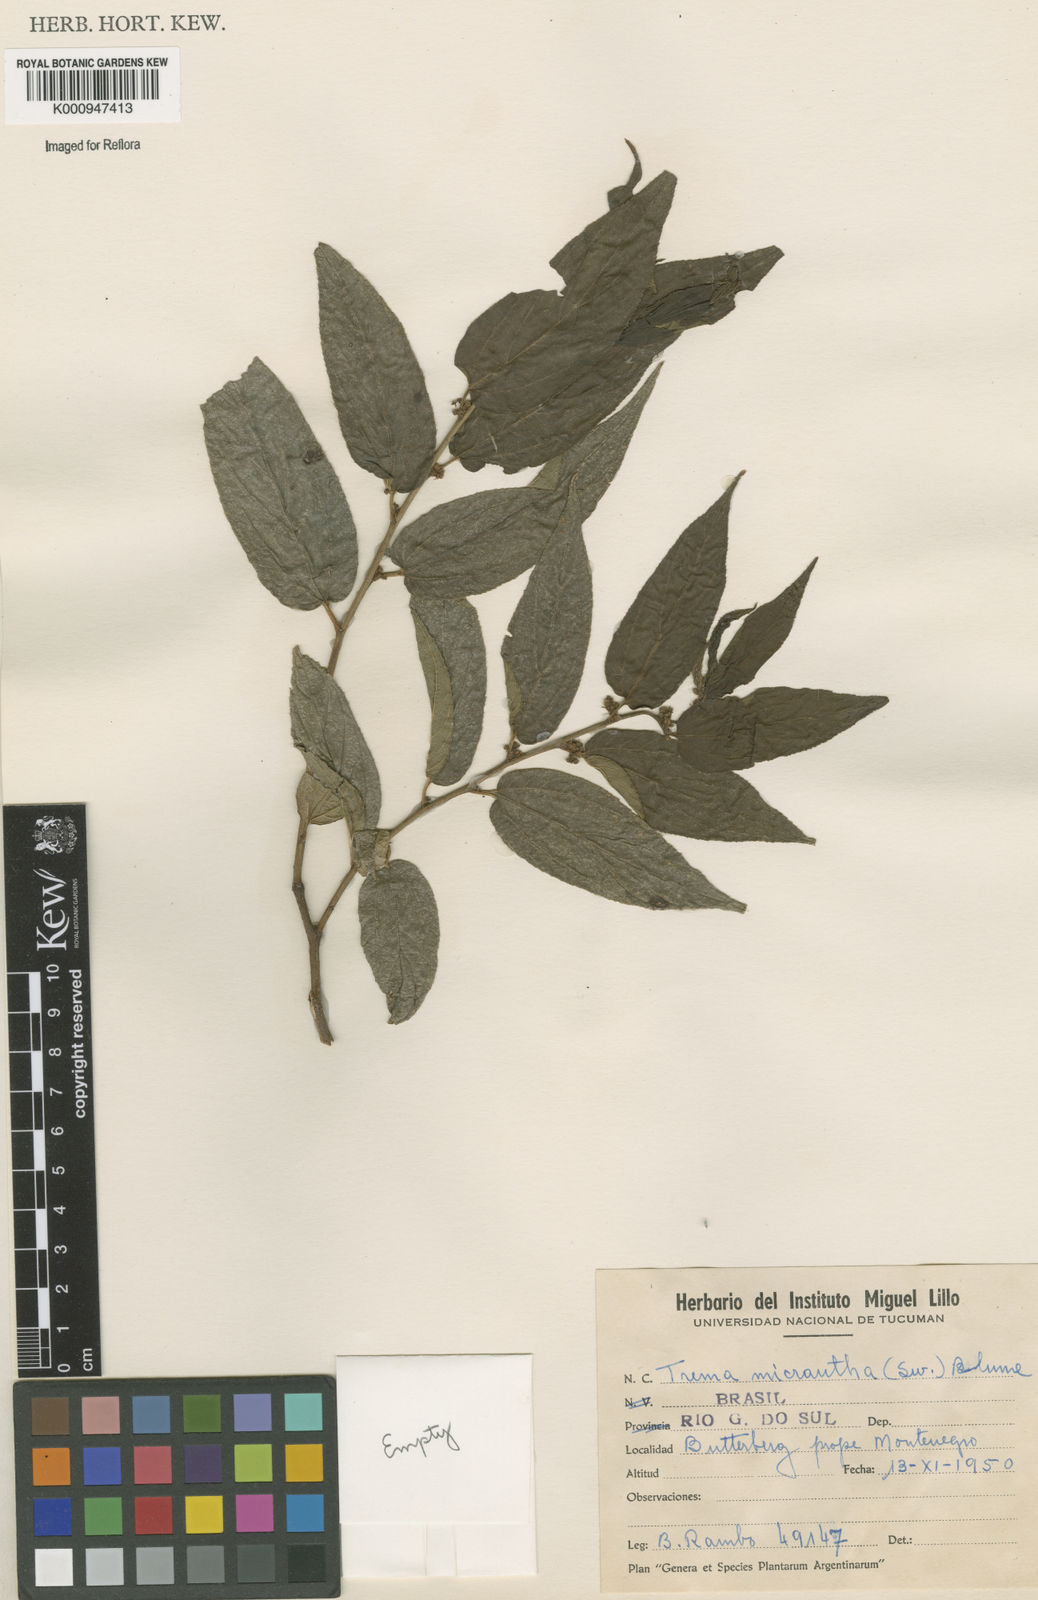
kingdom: Plantae
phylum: Tracheophyta
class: Magnoliopsida
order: Rosales
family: Cannabaceae
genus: Trema
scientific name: Trema micranthum
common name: Jamaican nettletree
